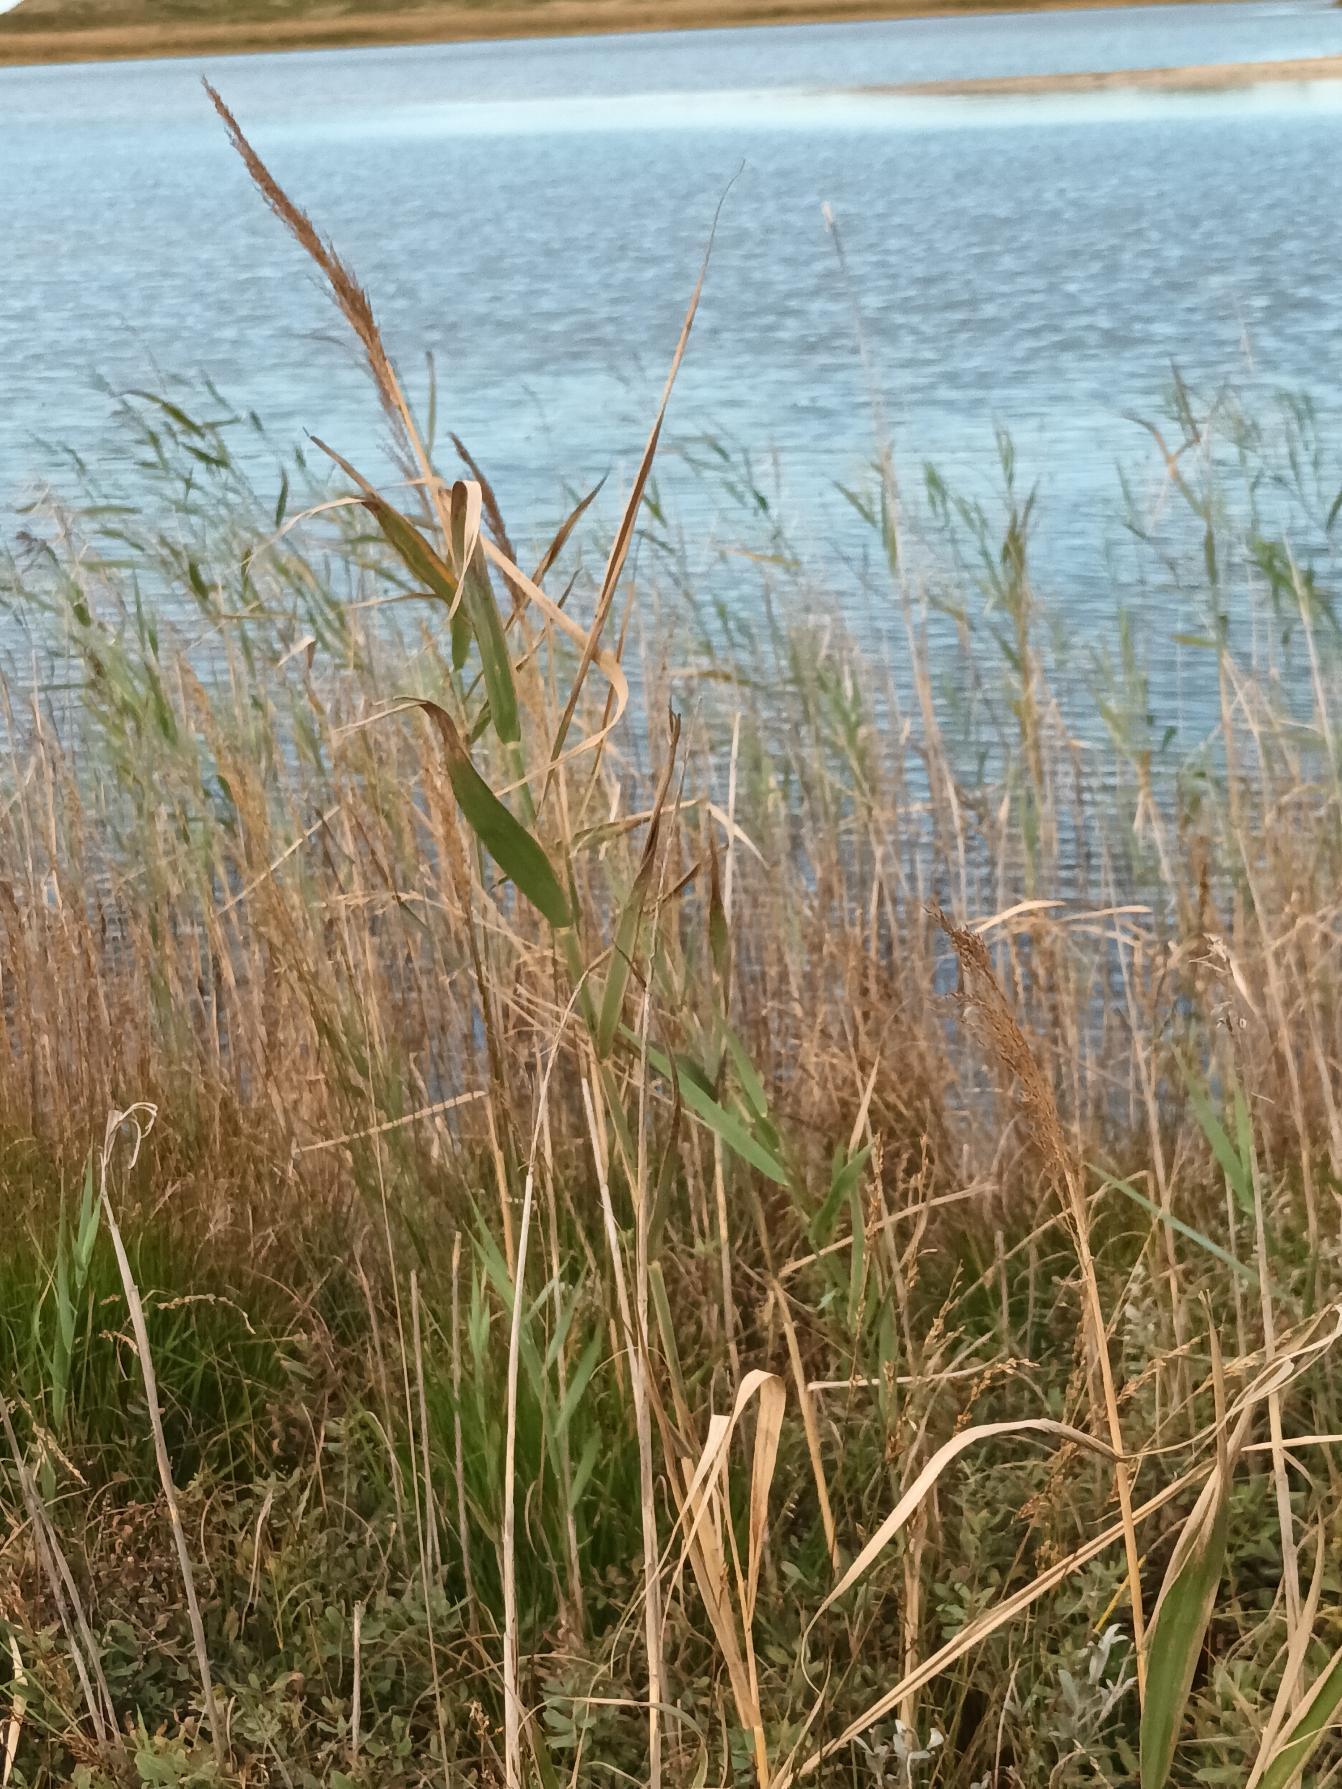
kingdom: Plantae
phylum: Tracheophyta
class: Liliopsida
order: Poales
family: Poaceae
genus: Phragmites
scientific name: Phragmites australis
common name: Tagrør
